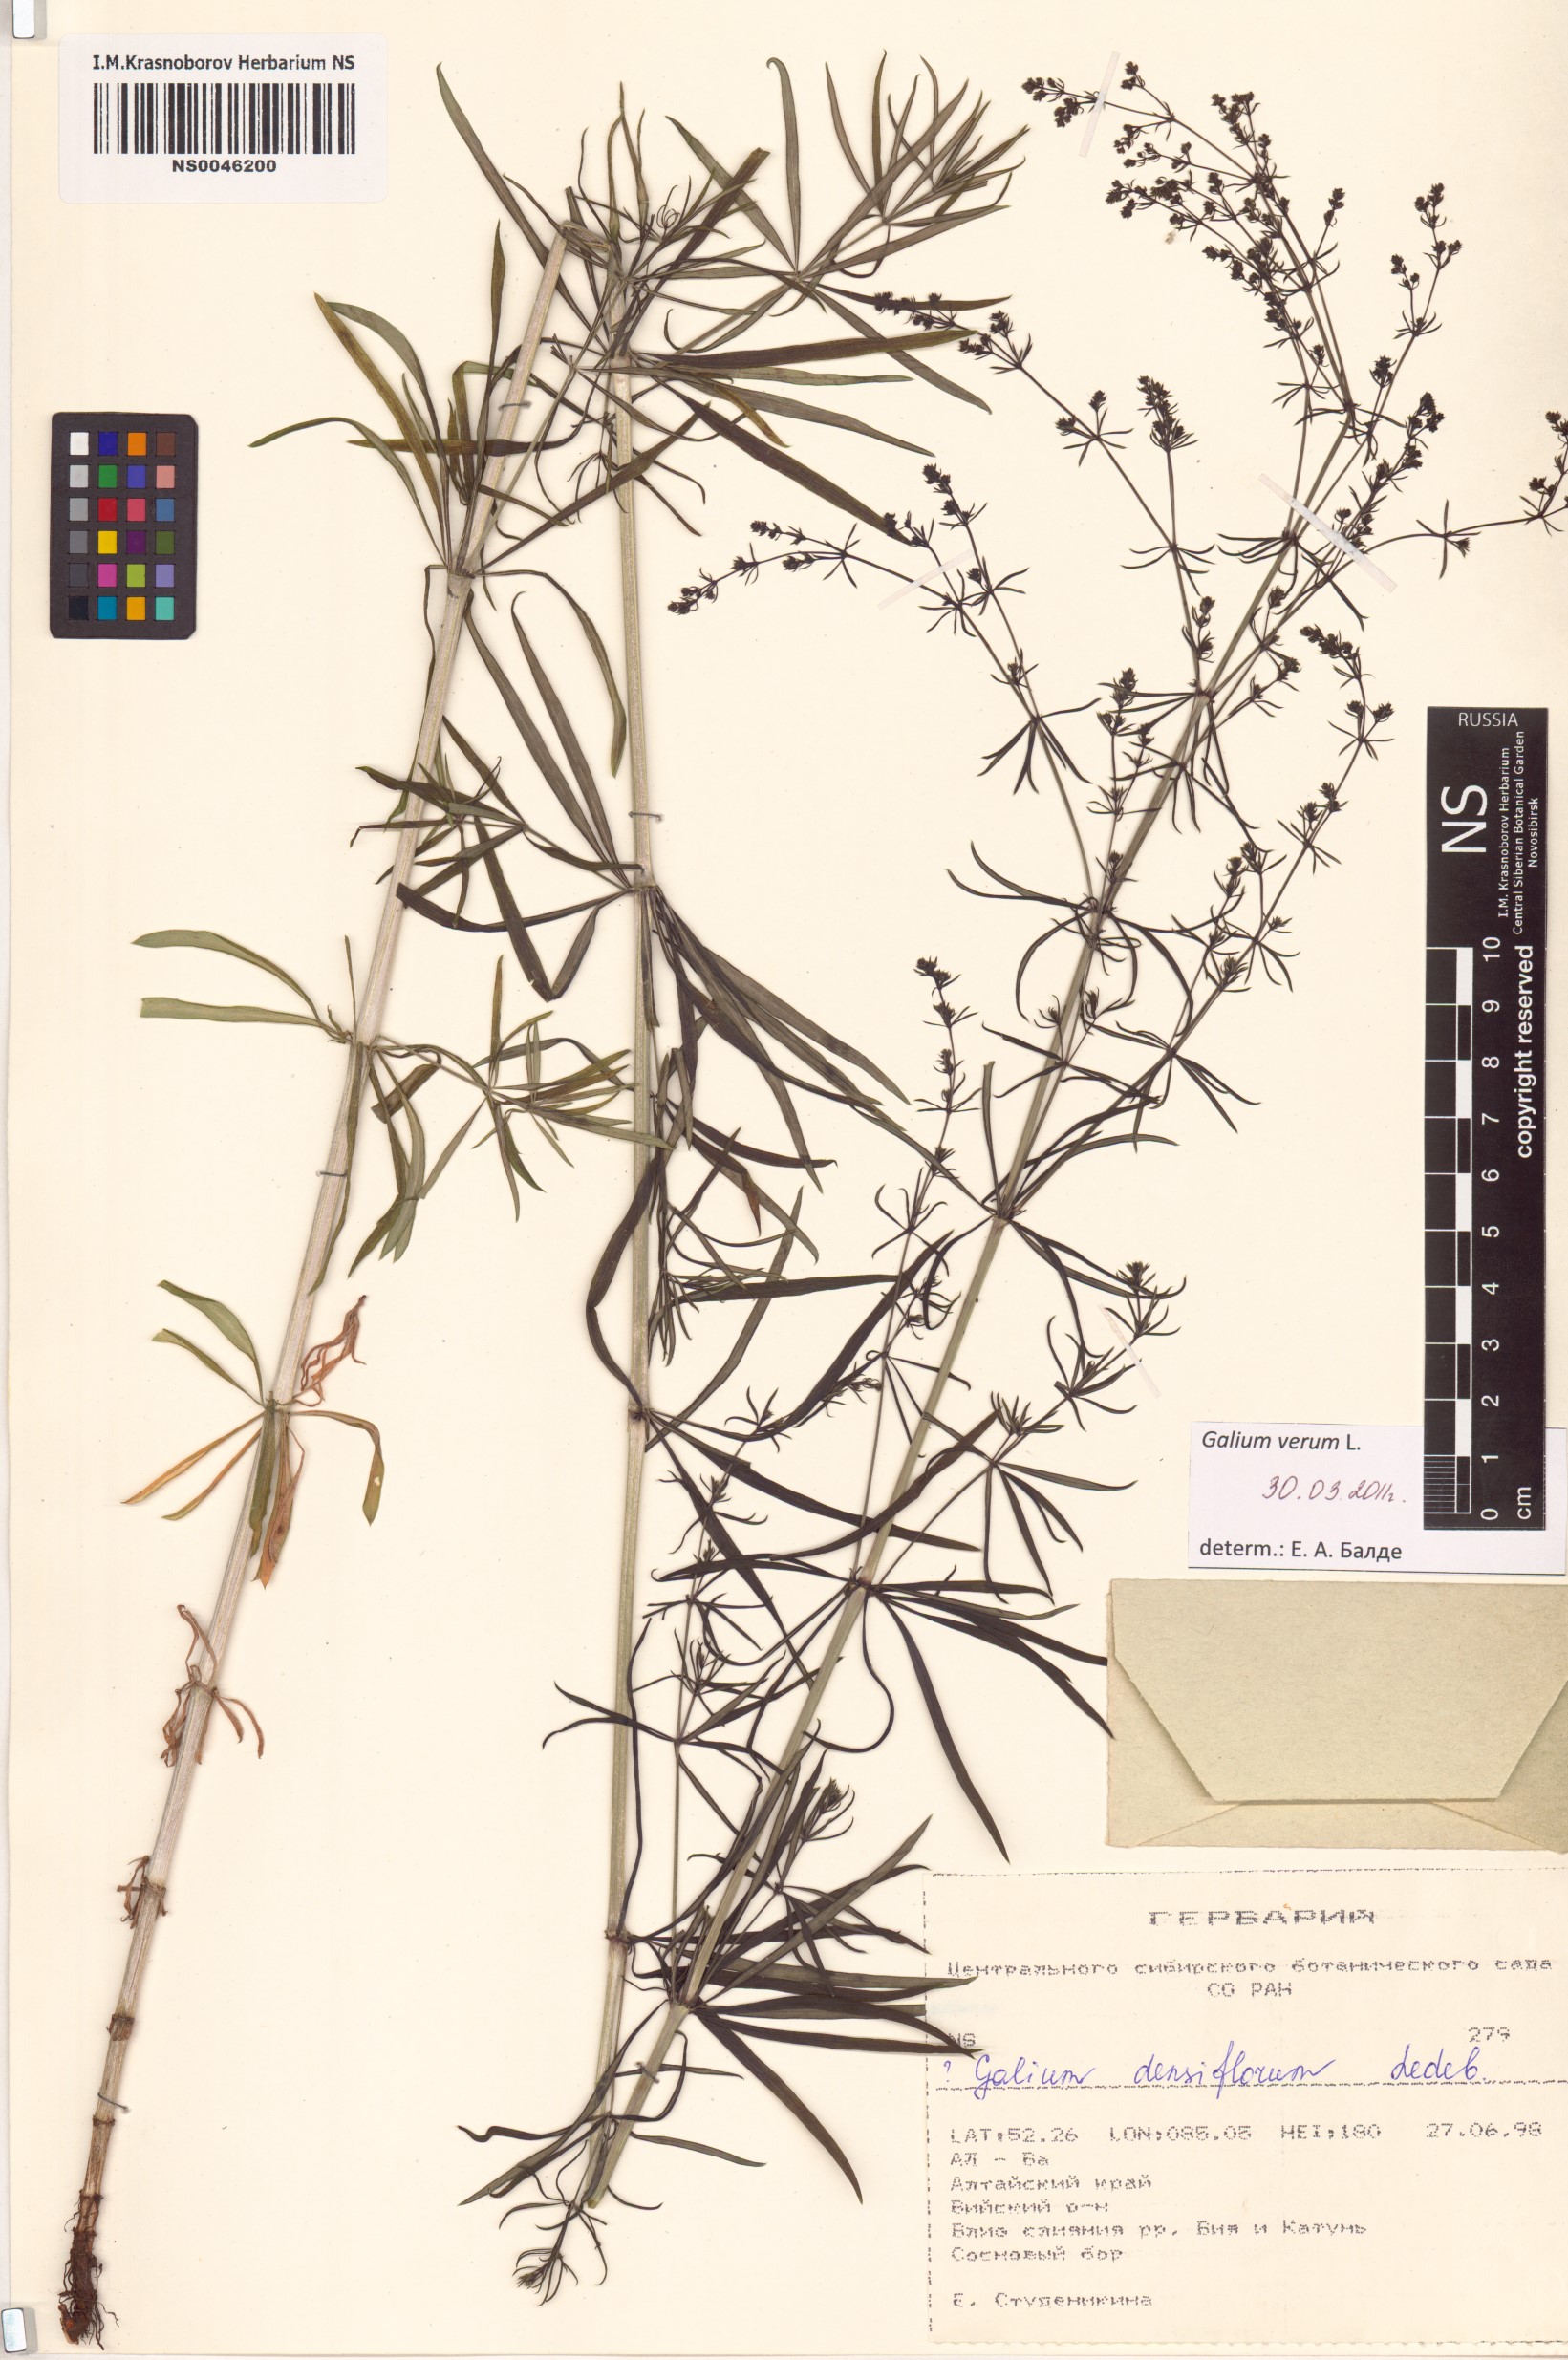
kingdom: Plantae
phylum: Tracheophyta
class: Magnoliopsida
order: Gentianales
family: Rubiaceae
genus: Galium
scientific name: Galium verum
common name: Lady's bedstraw
